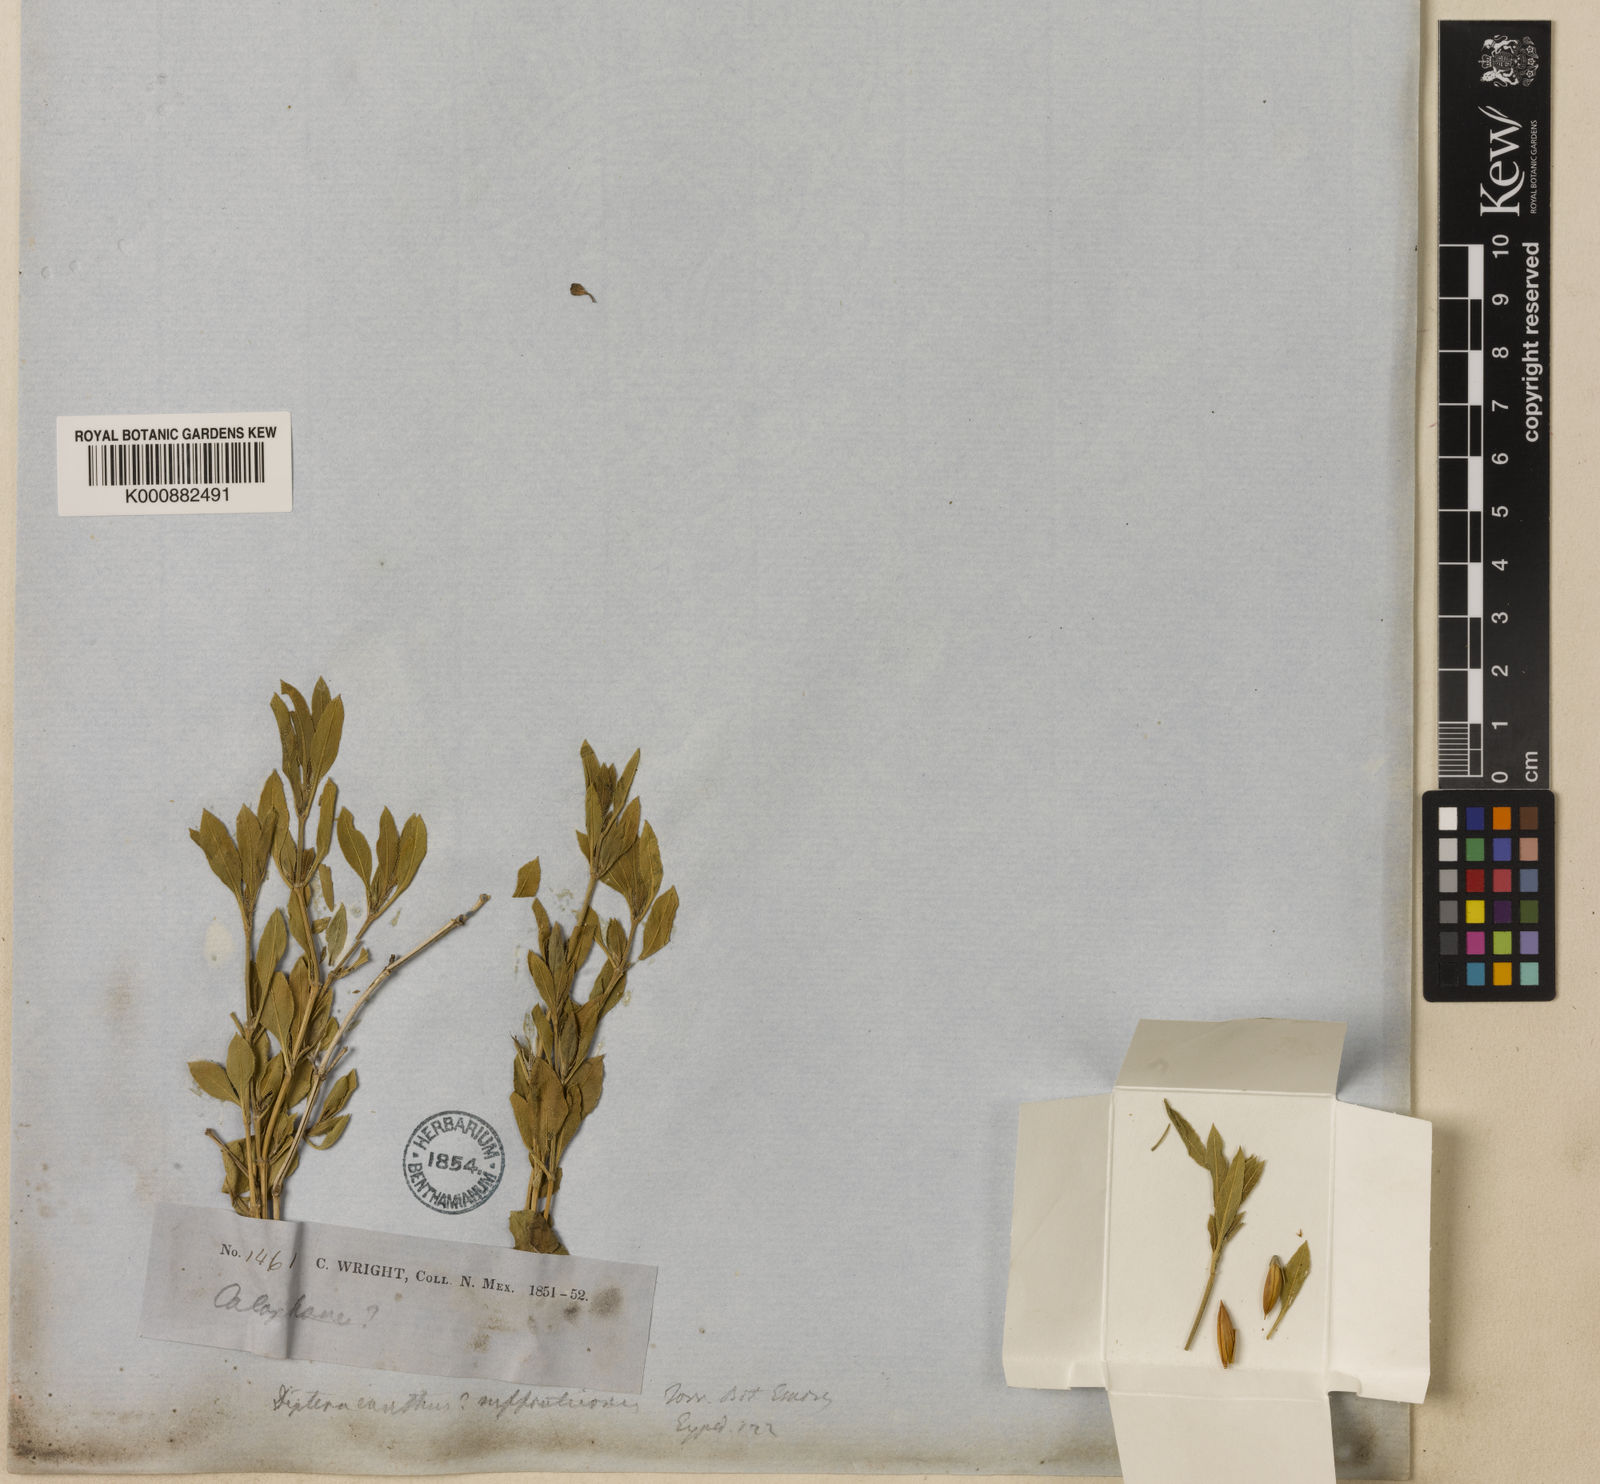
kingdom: Plantae
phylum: Tracheophyta
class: Magnoliopsida
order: Lamiales
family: Acanthaceae
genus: Ruellia
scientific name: Ruellia suffruticosa
